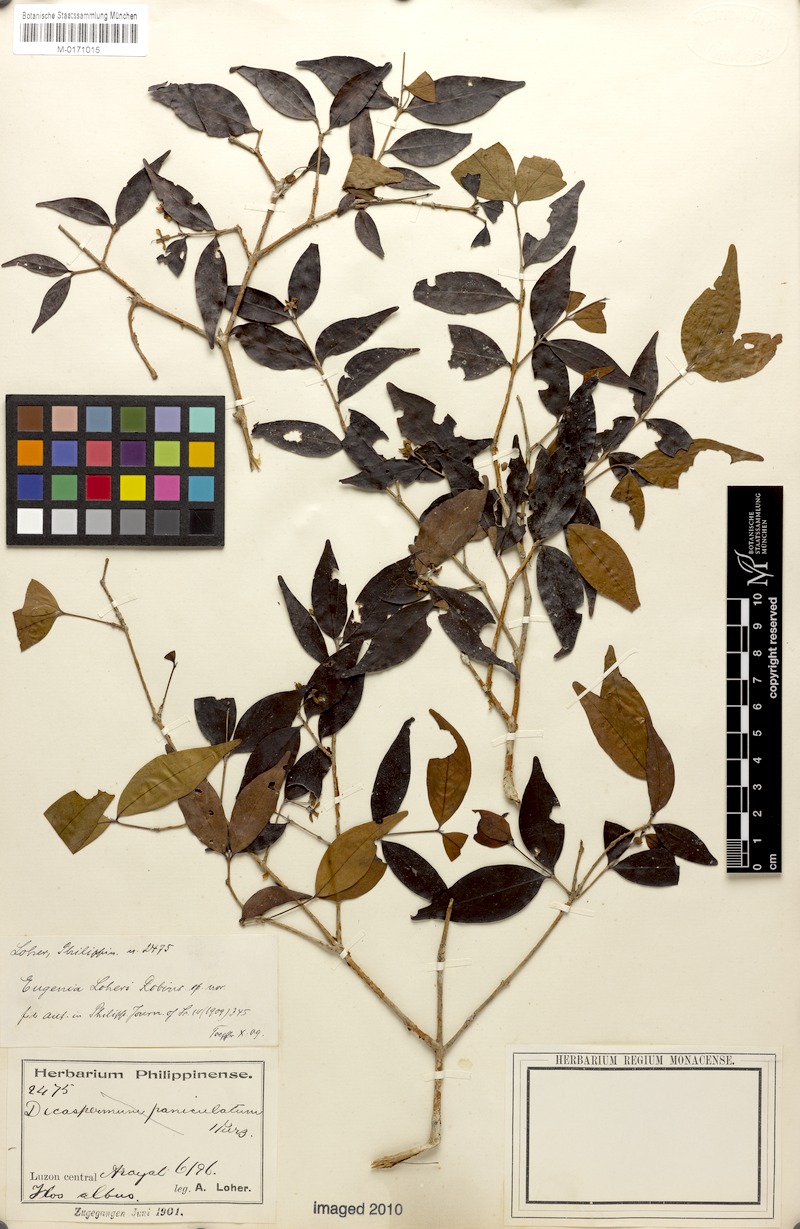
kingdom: Plantae
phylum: Tracheophyta
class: Magnoliopsida
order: Myrtales
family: Myrtaceae
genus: Eugenia
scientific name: Eugenia loheri
